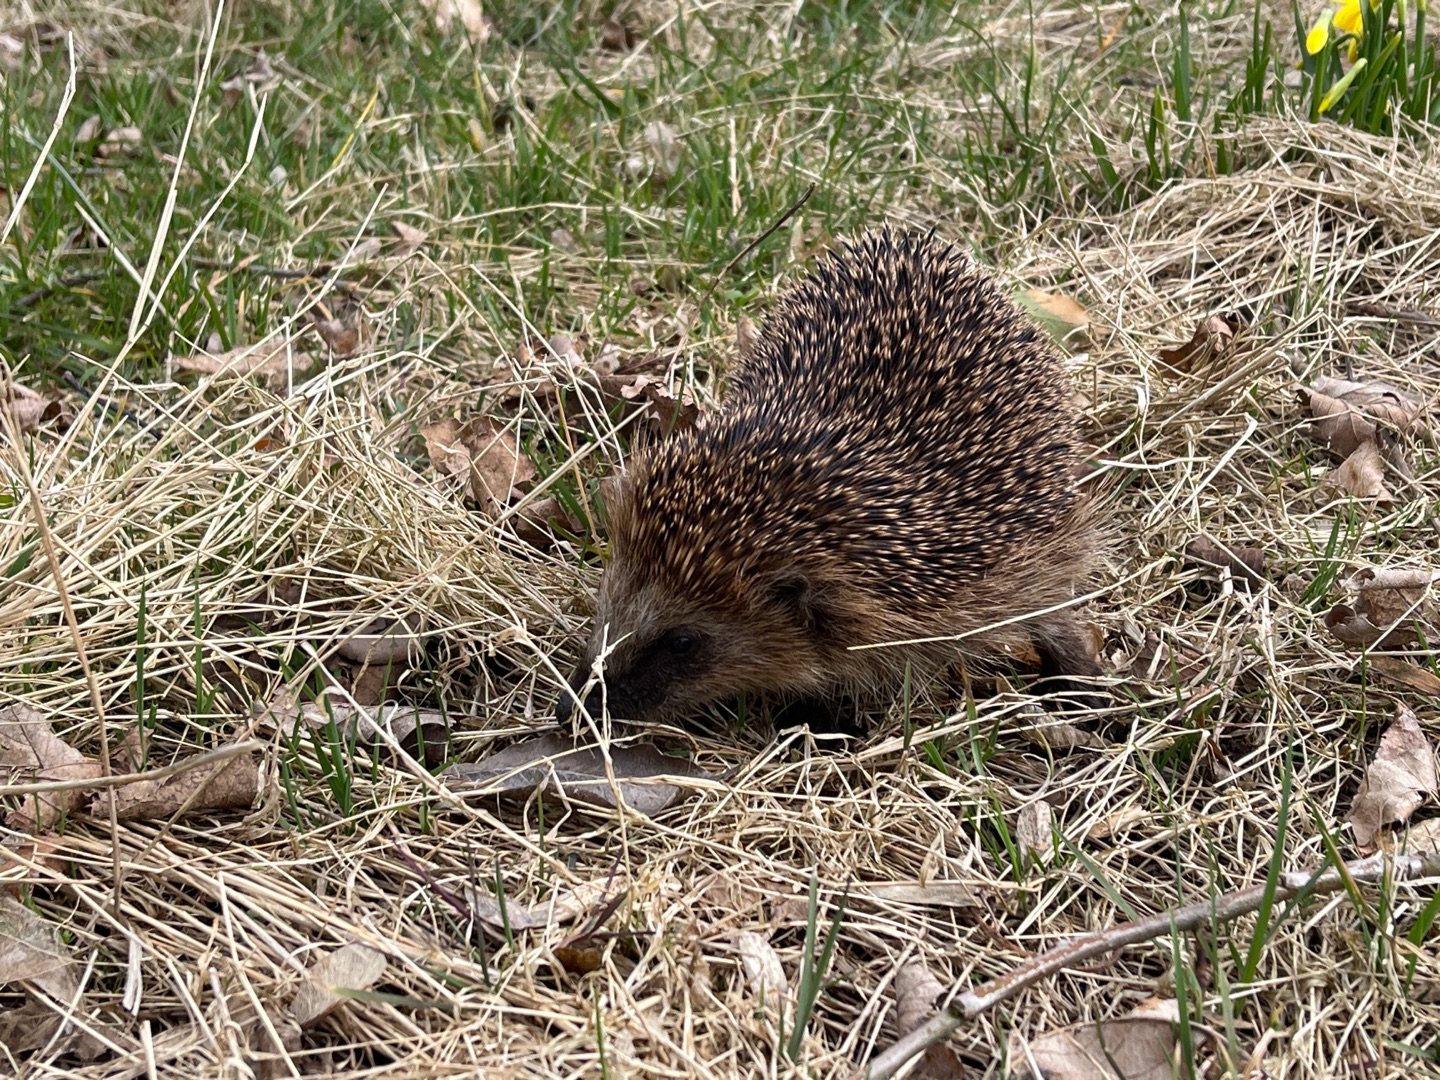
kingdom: Animalia
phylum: Chordata
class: Mammalia
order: Erinaceomorpha
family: Erinaceidae
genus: Erinaceus
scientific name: Erinaceus europaeus
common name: Pindsvin
